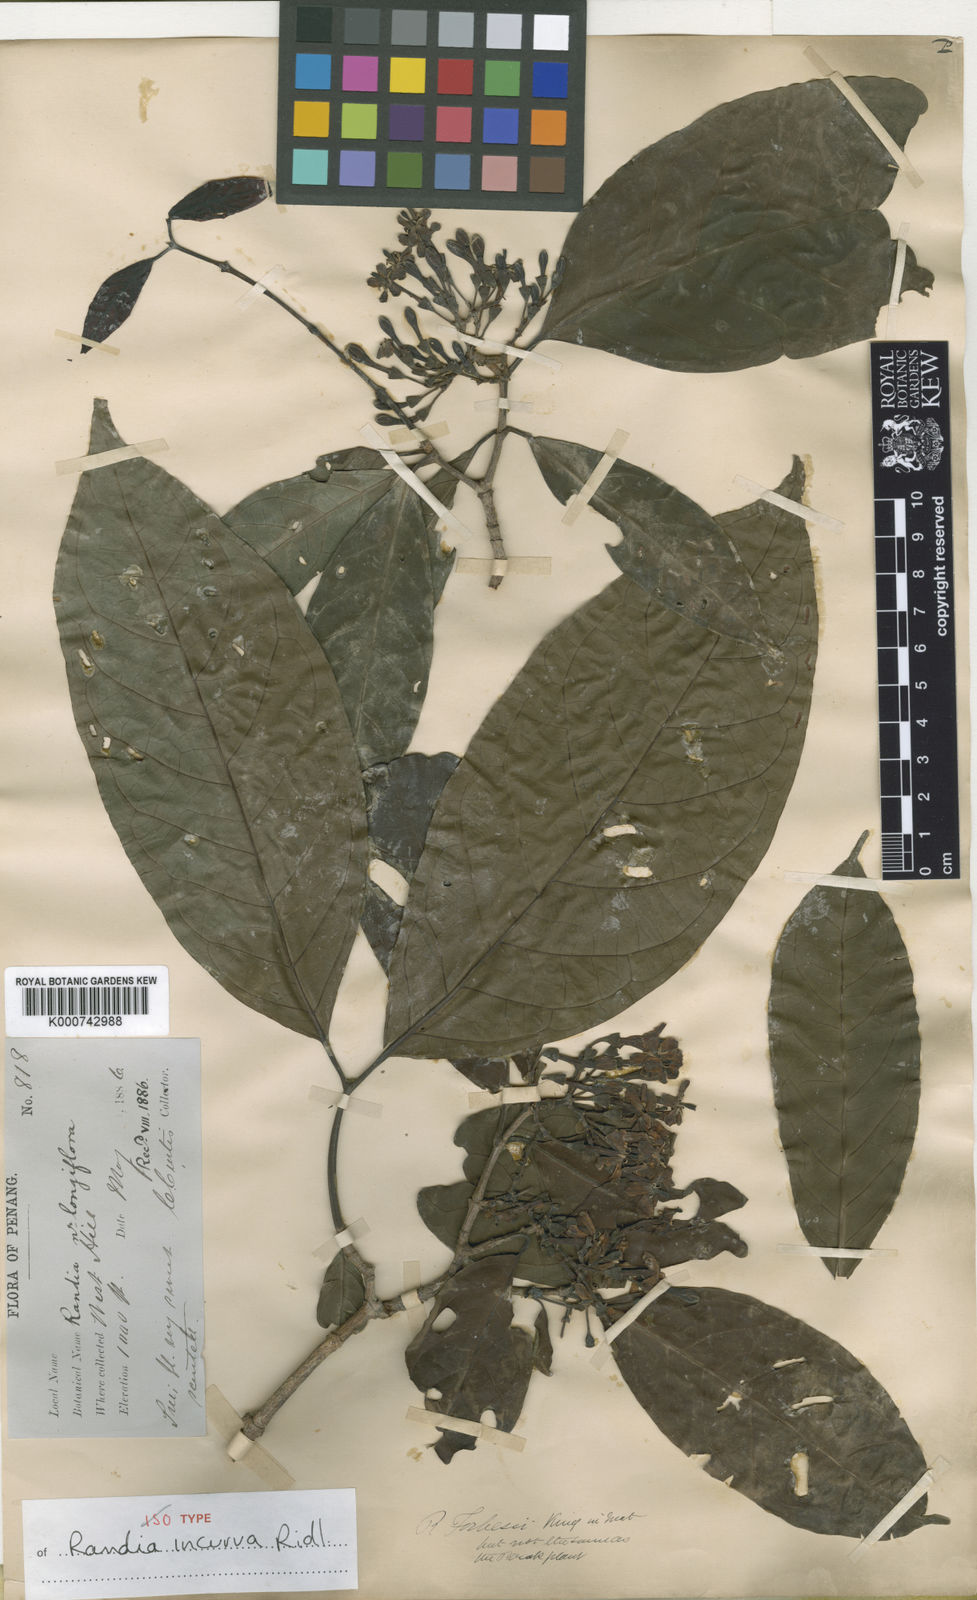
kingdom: Plantae
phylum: Tracheophyta
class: Magnoliopsida
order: Gentianales
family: Rubiaceae
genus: Oxyceros
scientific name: Oxyceros bispinosus
